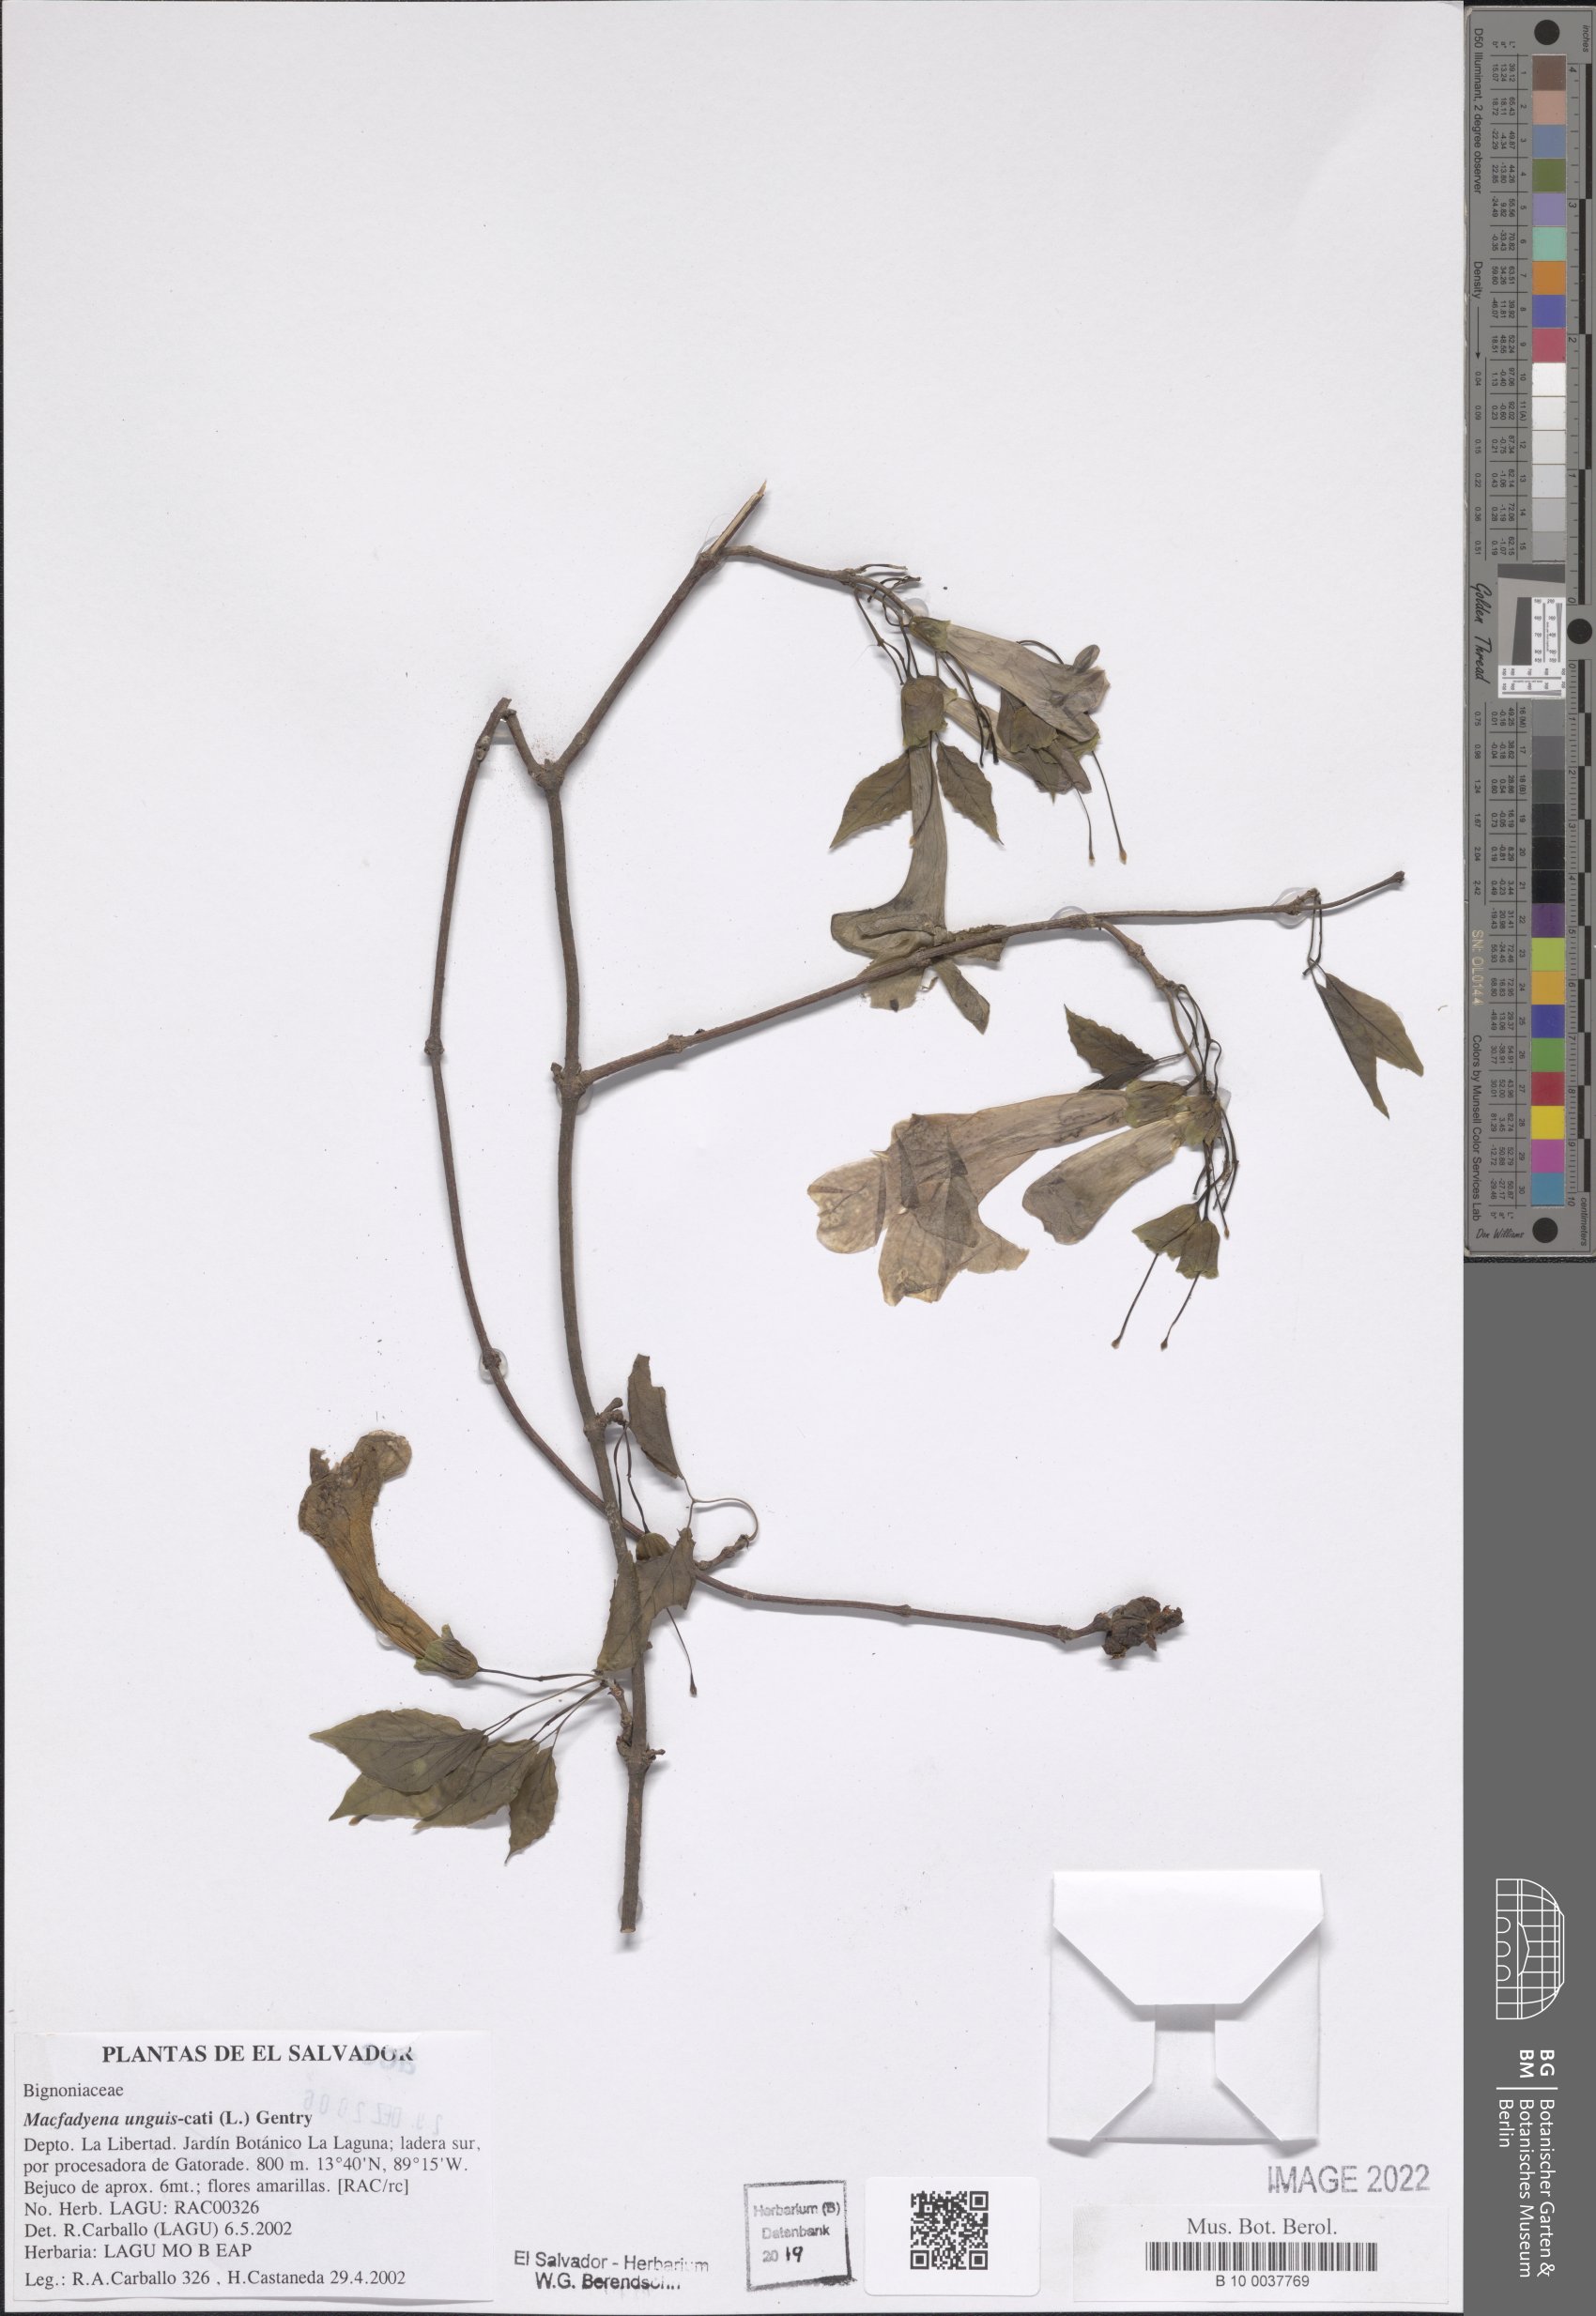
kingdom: Plantae
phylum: Tracheophyta
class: Magnoliopsida
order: Lamiales
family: Bignoniaceae
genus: Dolichandra
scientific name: Dolichandra unguis-cati
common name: Catclaw vine
